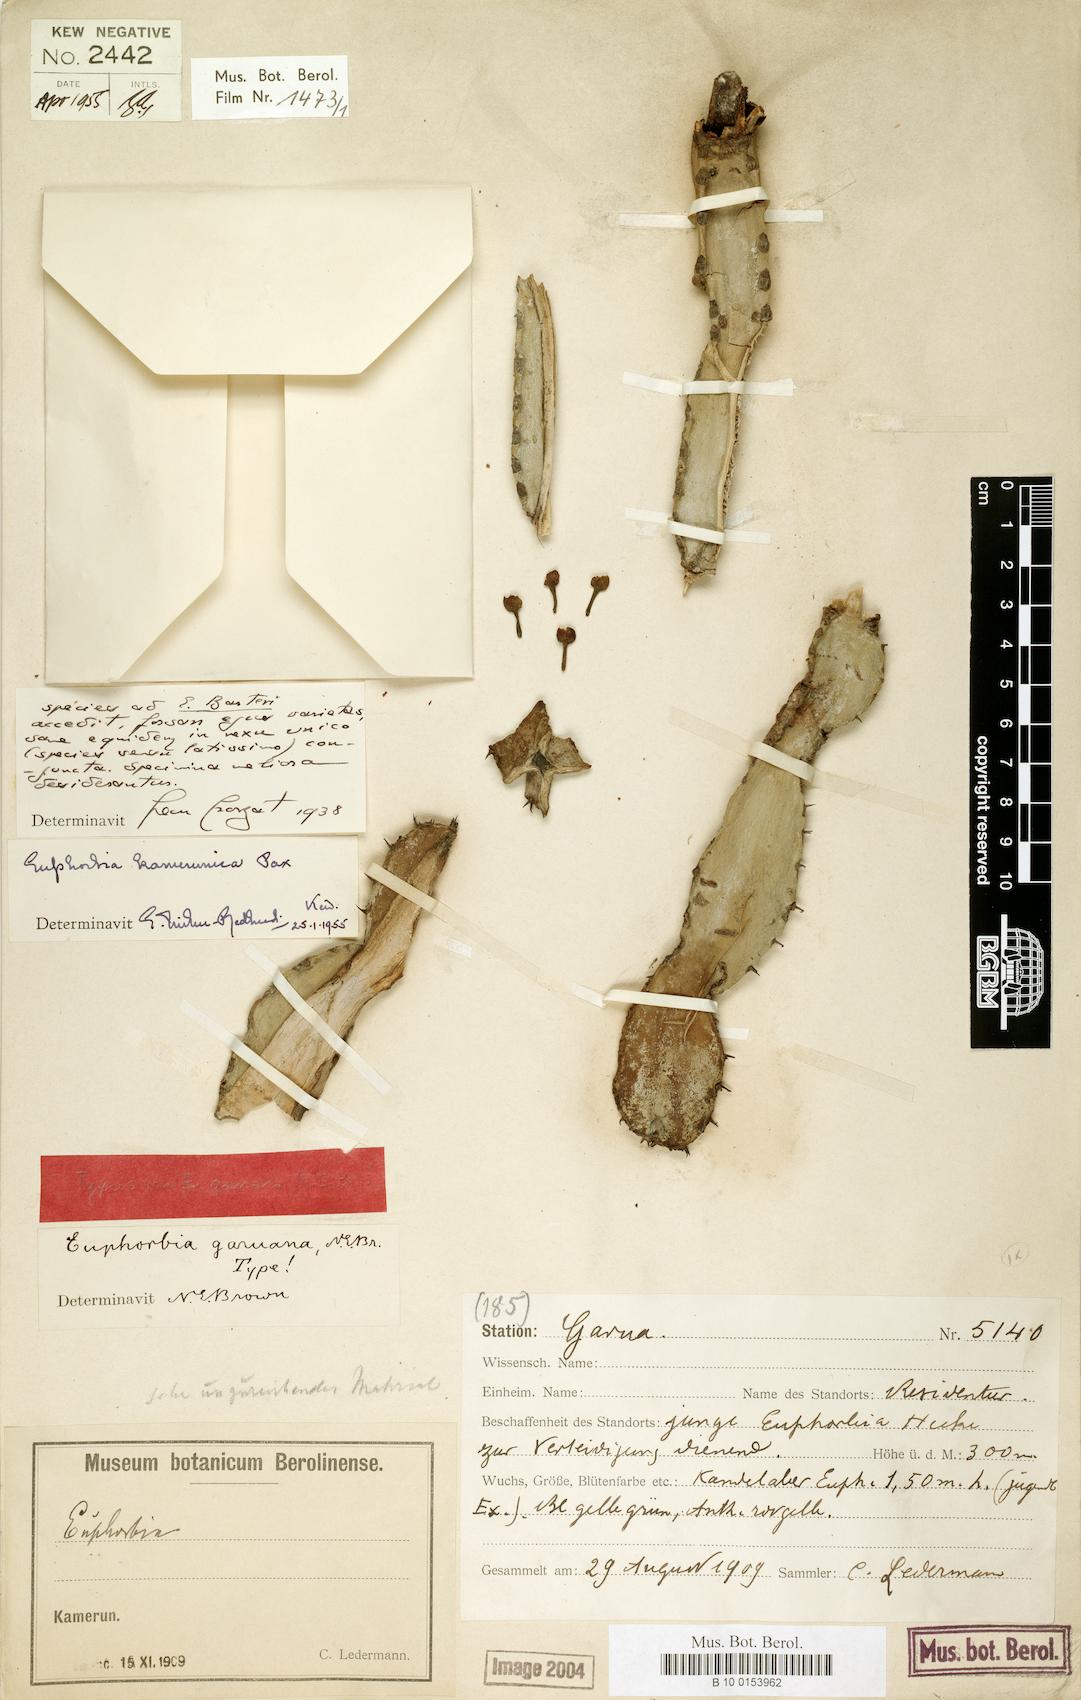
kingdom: Plantae
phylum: Tracheophyta
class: Magnoliopsida
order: Malpighiales
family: Euphorbiaceae
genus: Euphorbia
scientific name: Euphorbia kamerunica
